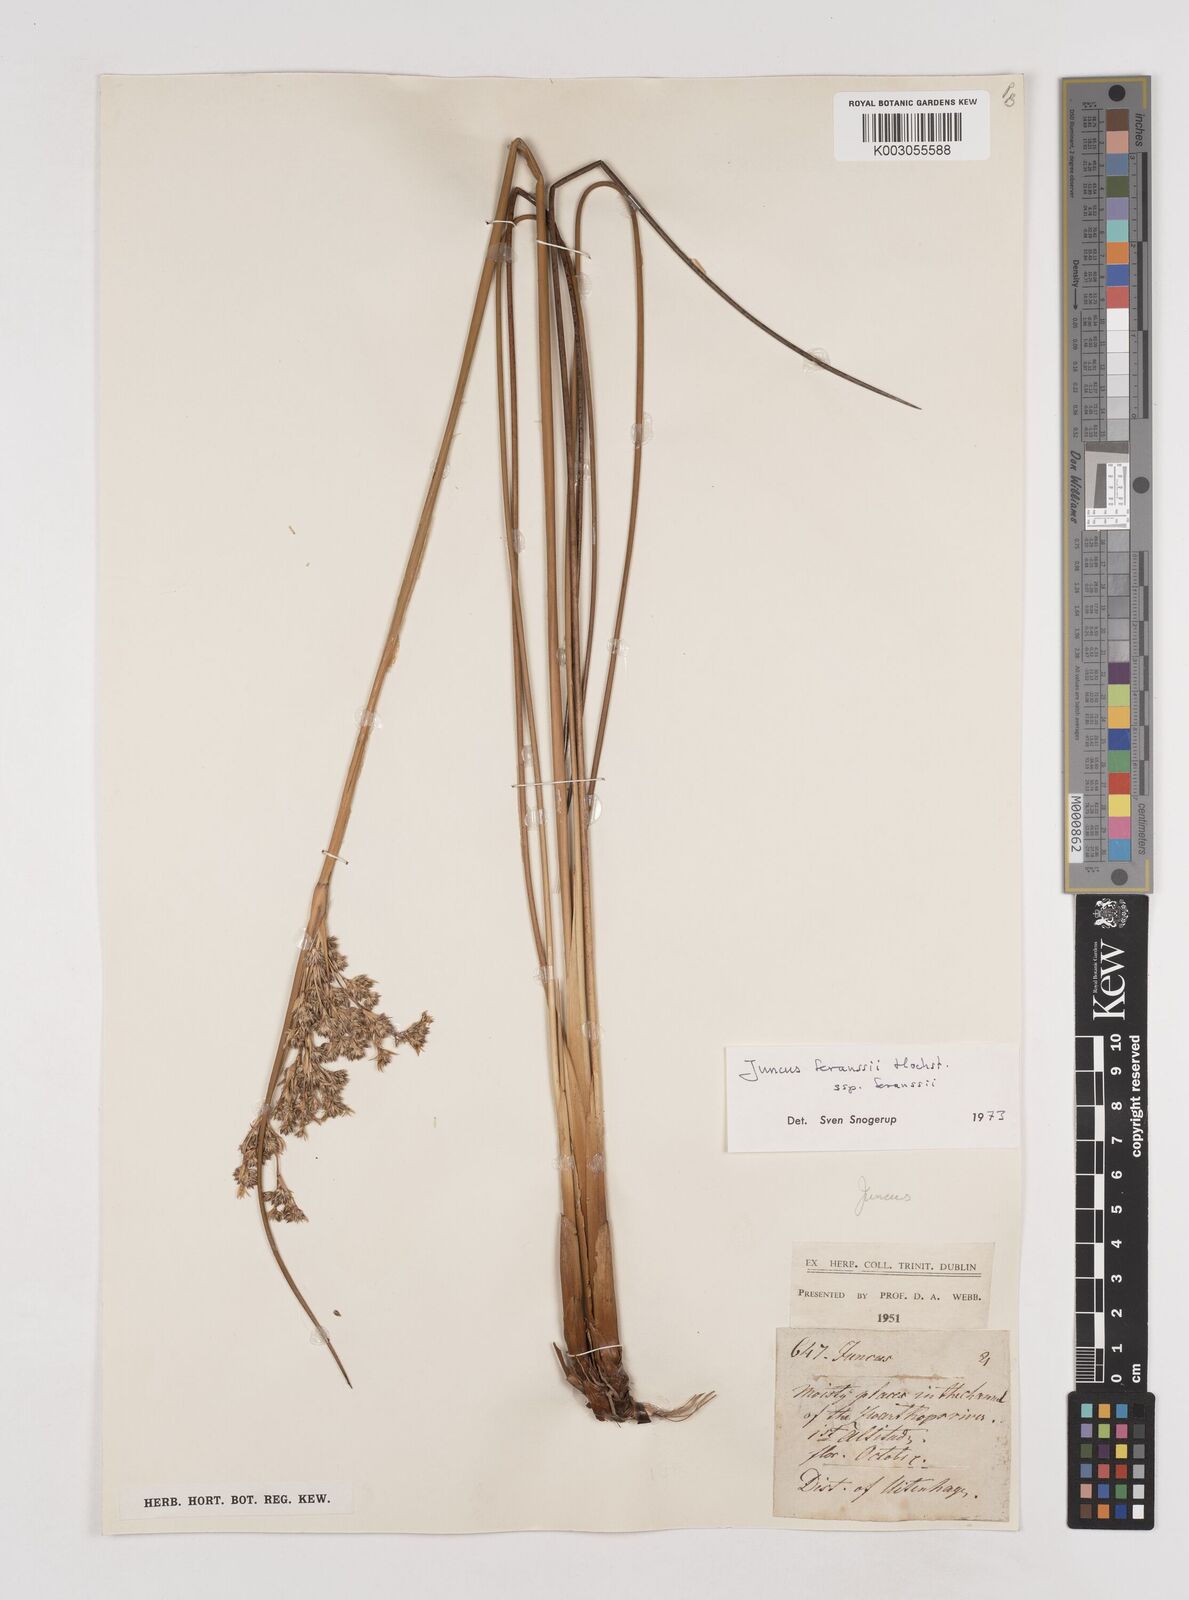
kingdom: Plantae
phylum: Tracheophyta
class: Liliopsida
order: Poales
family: Juncaceae
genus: Juncus
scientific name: Juncus kraussii
